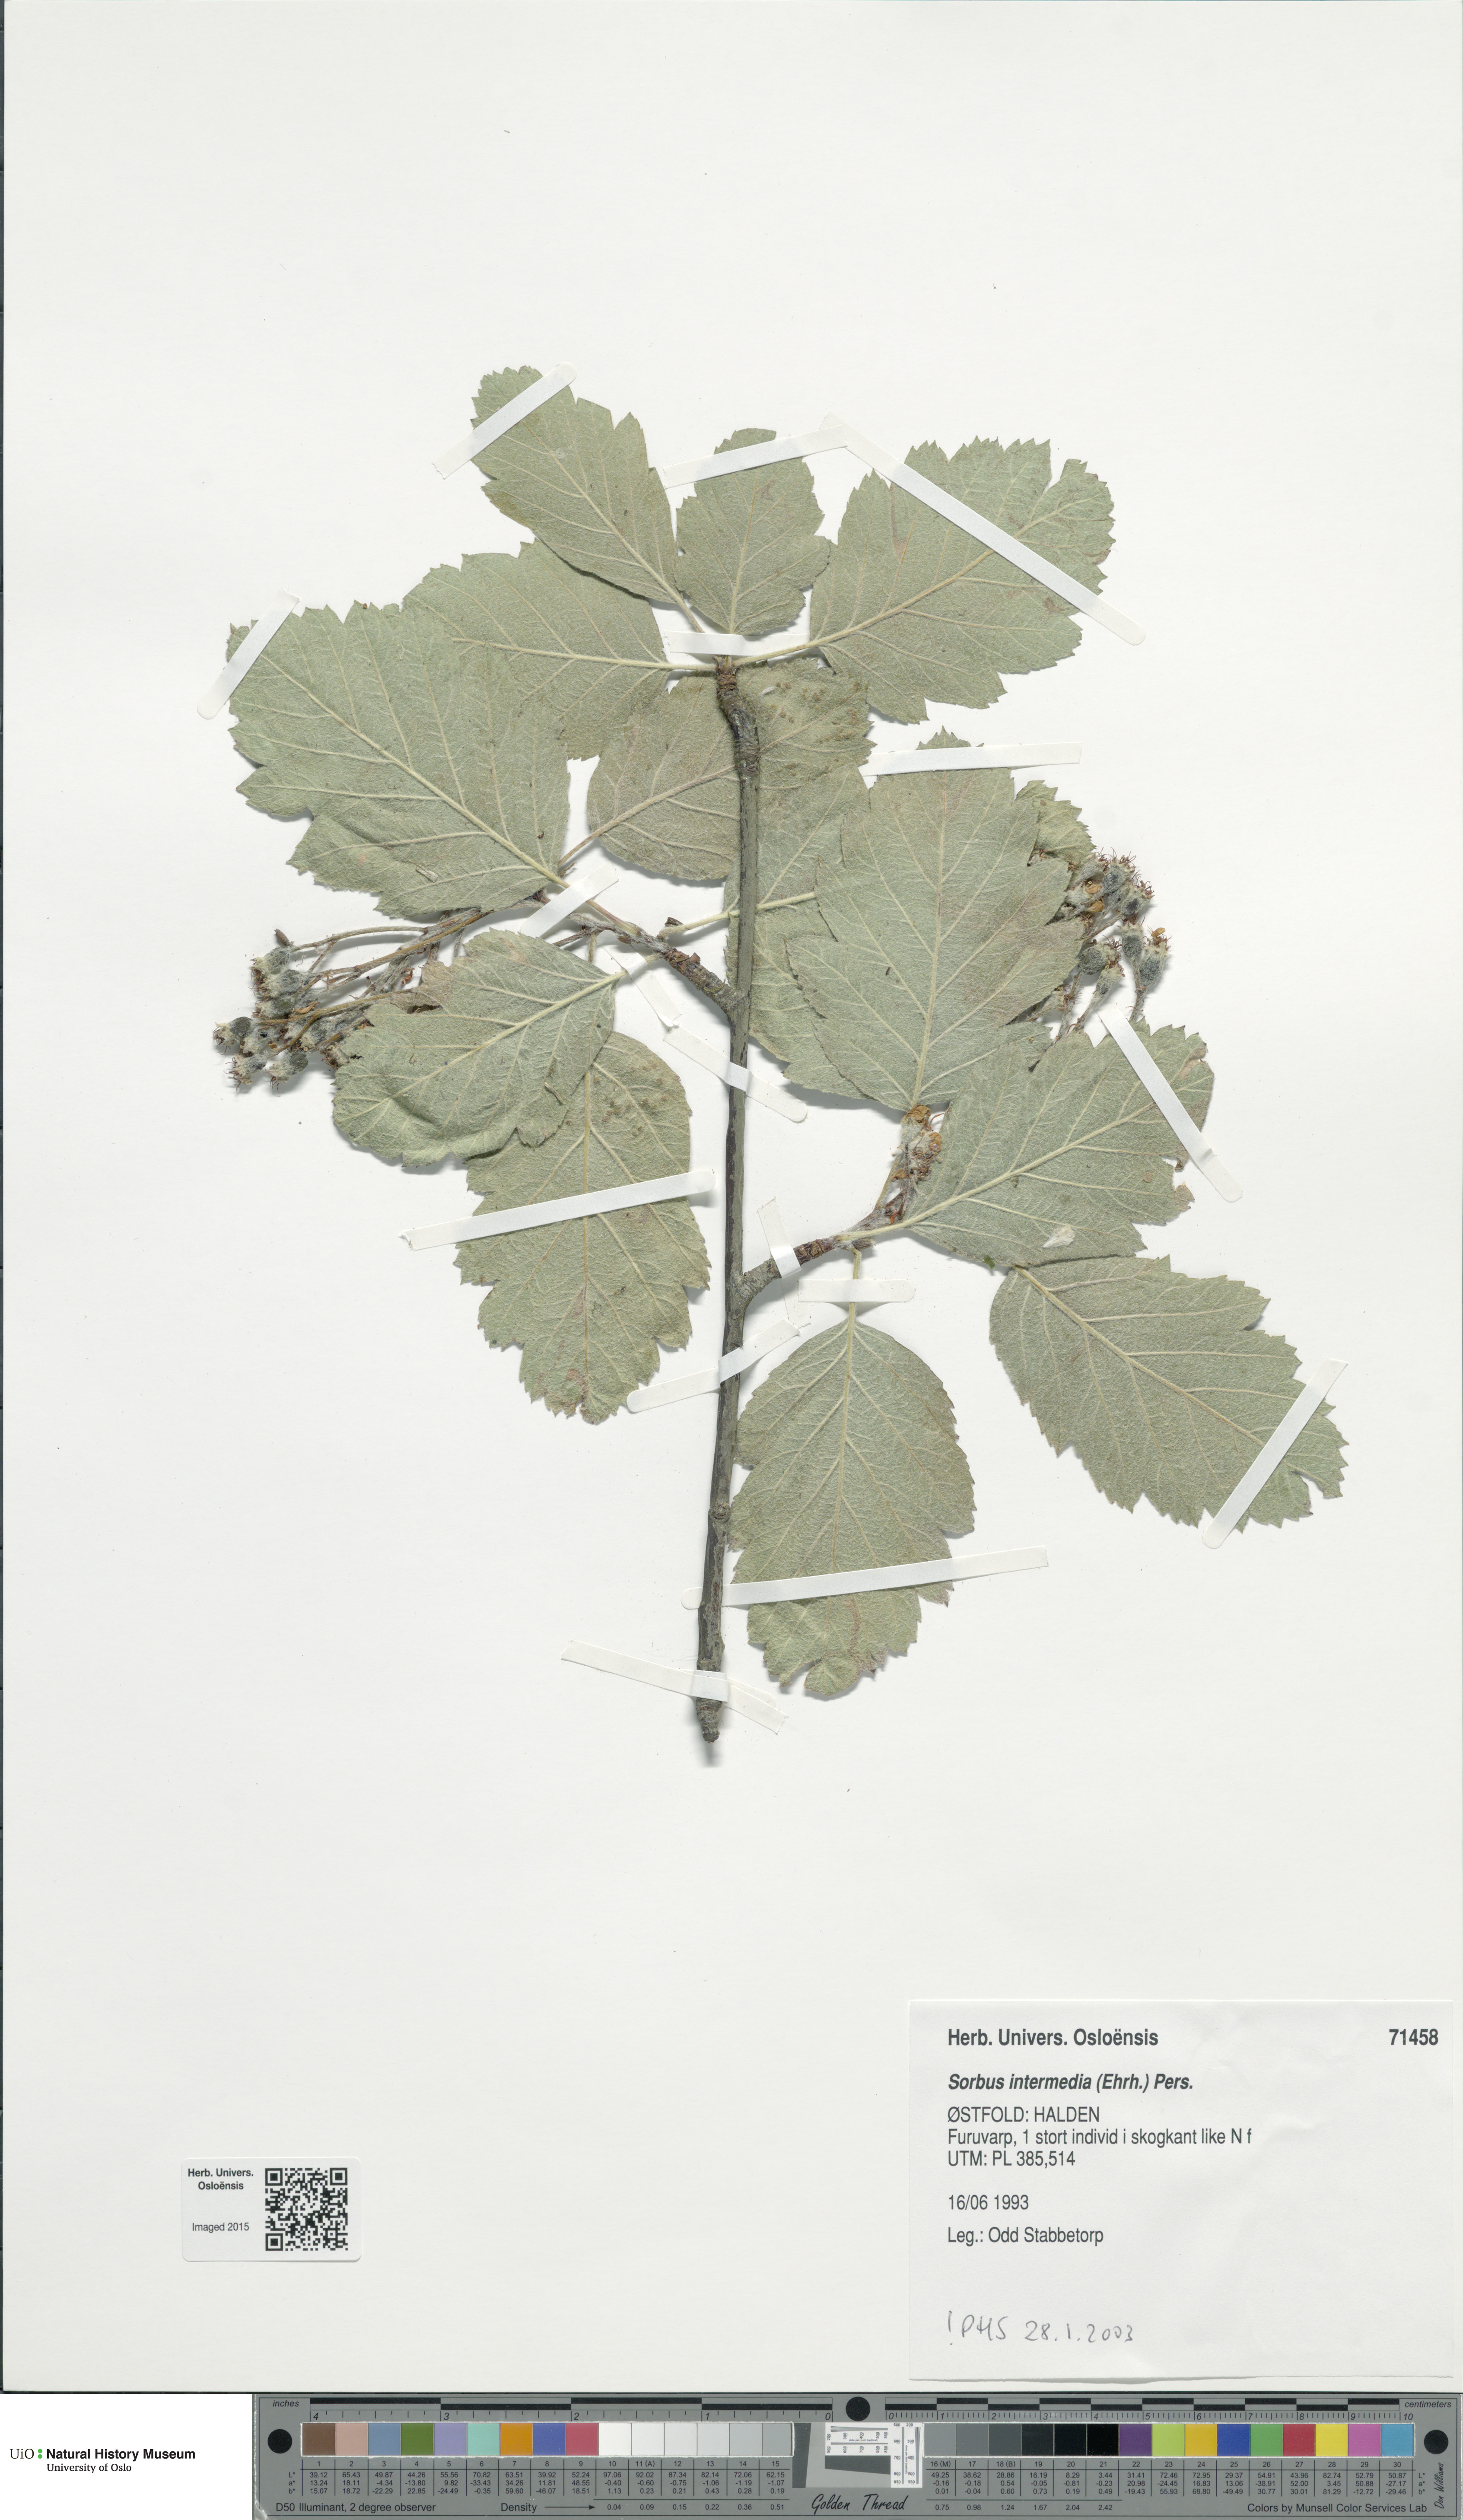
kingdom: Plantae
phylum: Tracheophyta
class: Magnoliopsida
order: Rosales
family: Rosaceae
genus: Scandosorbus
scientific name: Scandosorbus intermedia
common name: Swedish whitebeam
